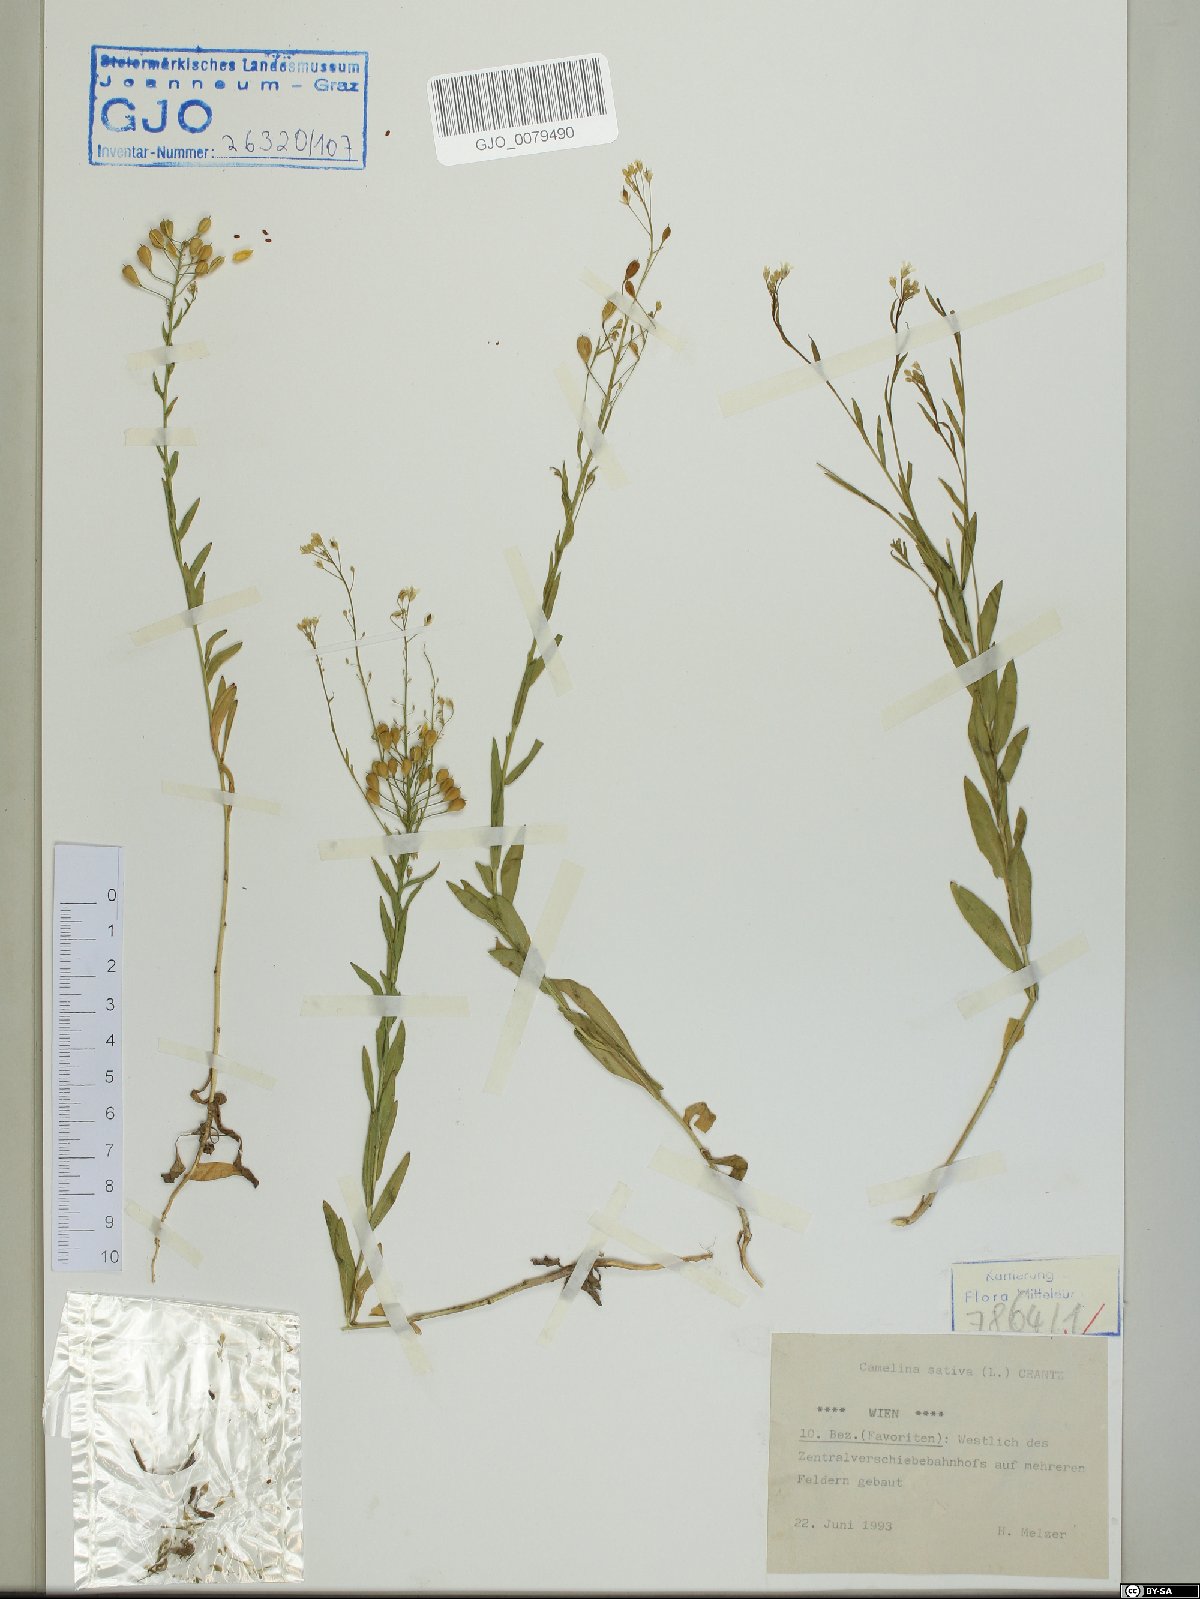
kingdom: Plantae
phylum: Tracheophyta
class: Magnoliopsida
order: Brassicales
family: Brassicaceae
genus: Camelina
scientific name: Camelina sativa
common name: Gold-of-pleasure
